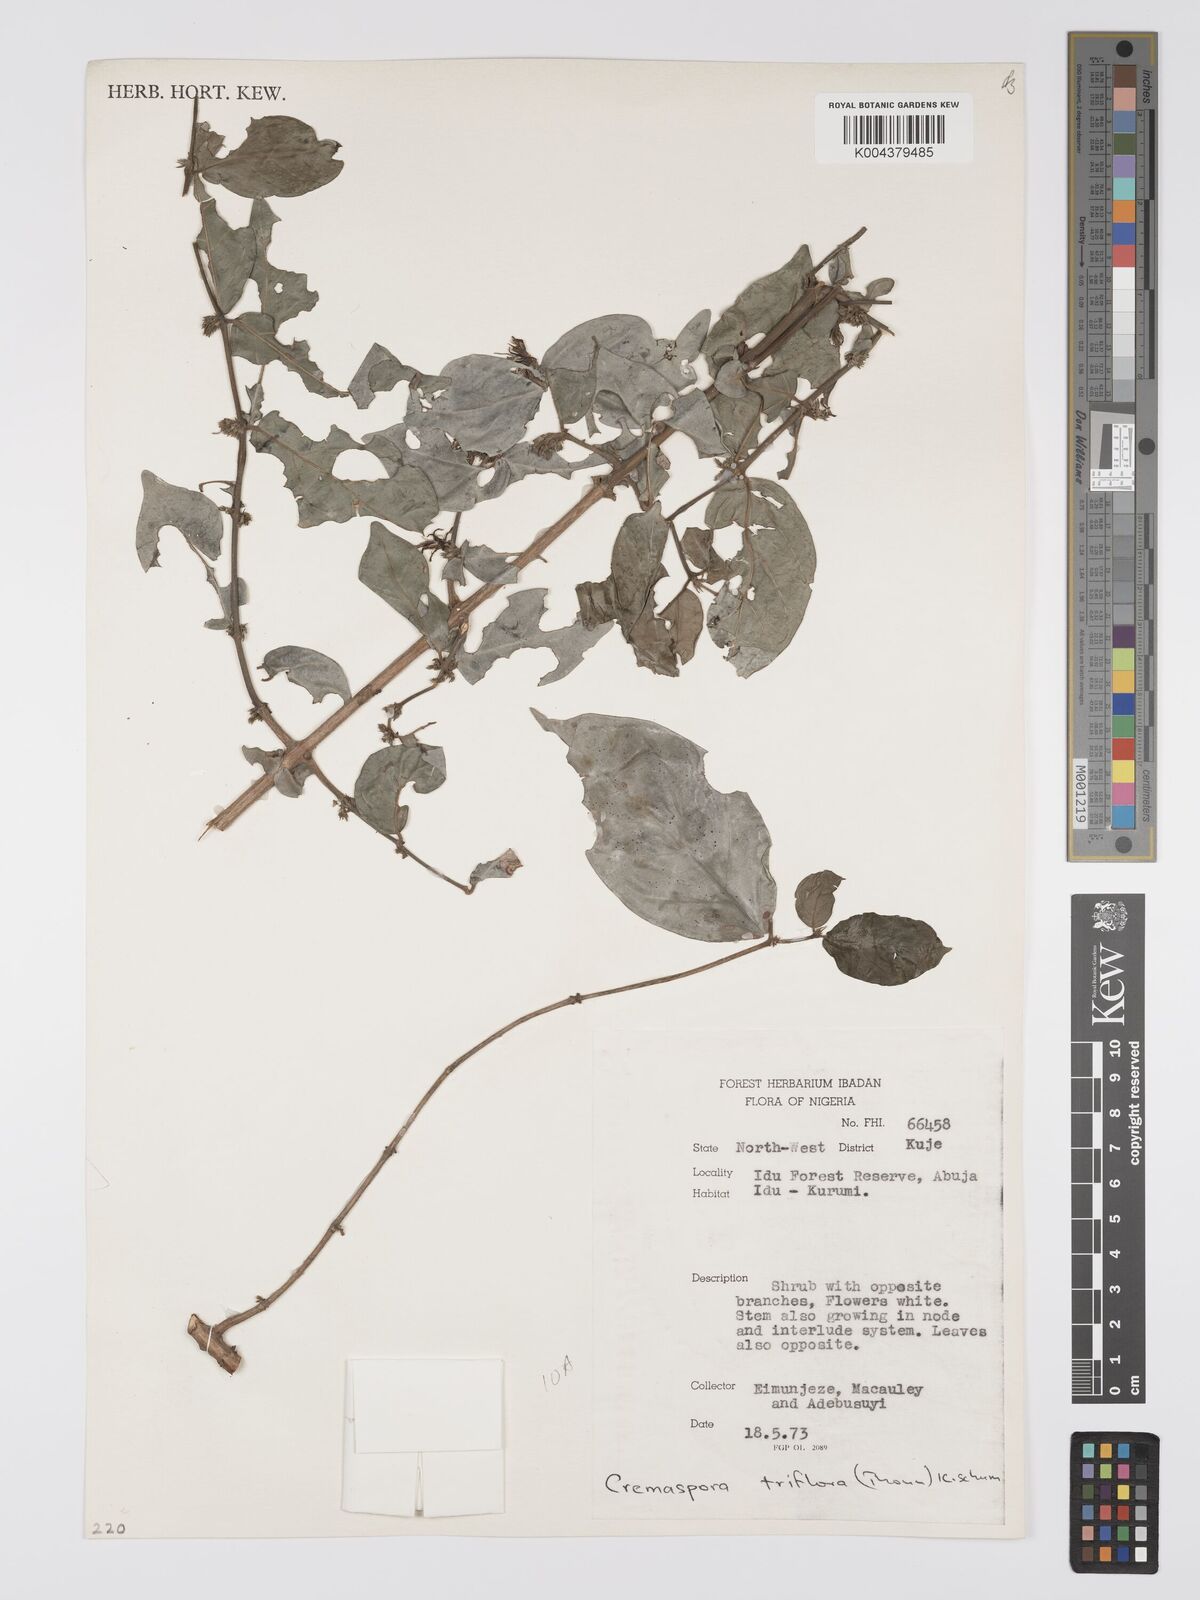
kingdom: Plantae
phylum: Tracheophyta
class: Magnoliopsida
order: Gentianales
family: Rubiaceae
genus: Cremaspora
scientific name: Cremaspora triflora
